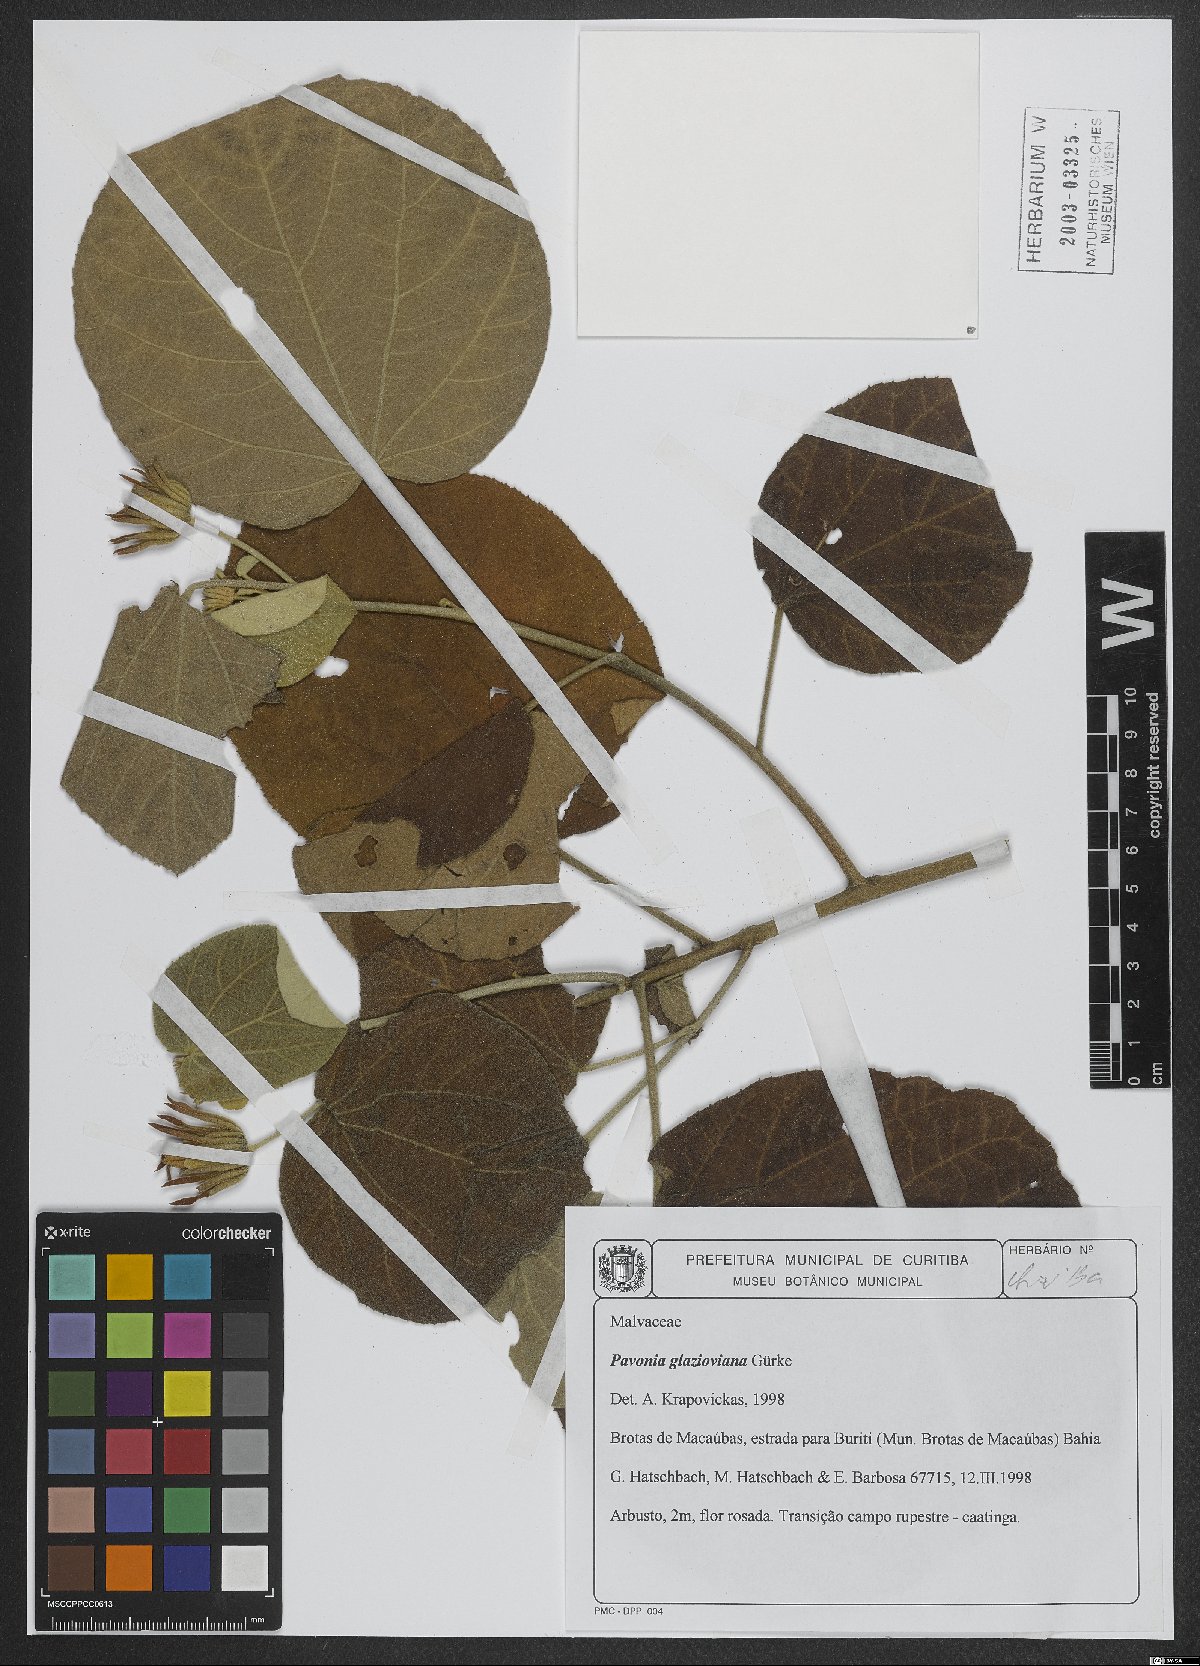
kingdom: Plantae
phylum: Tracheophyta
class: Magnoliopsida
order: Malvales
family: Malvaceae
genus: Pavonia
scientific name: Pavonia glazioviana
